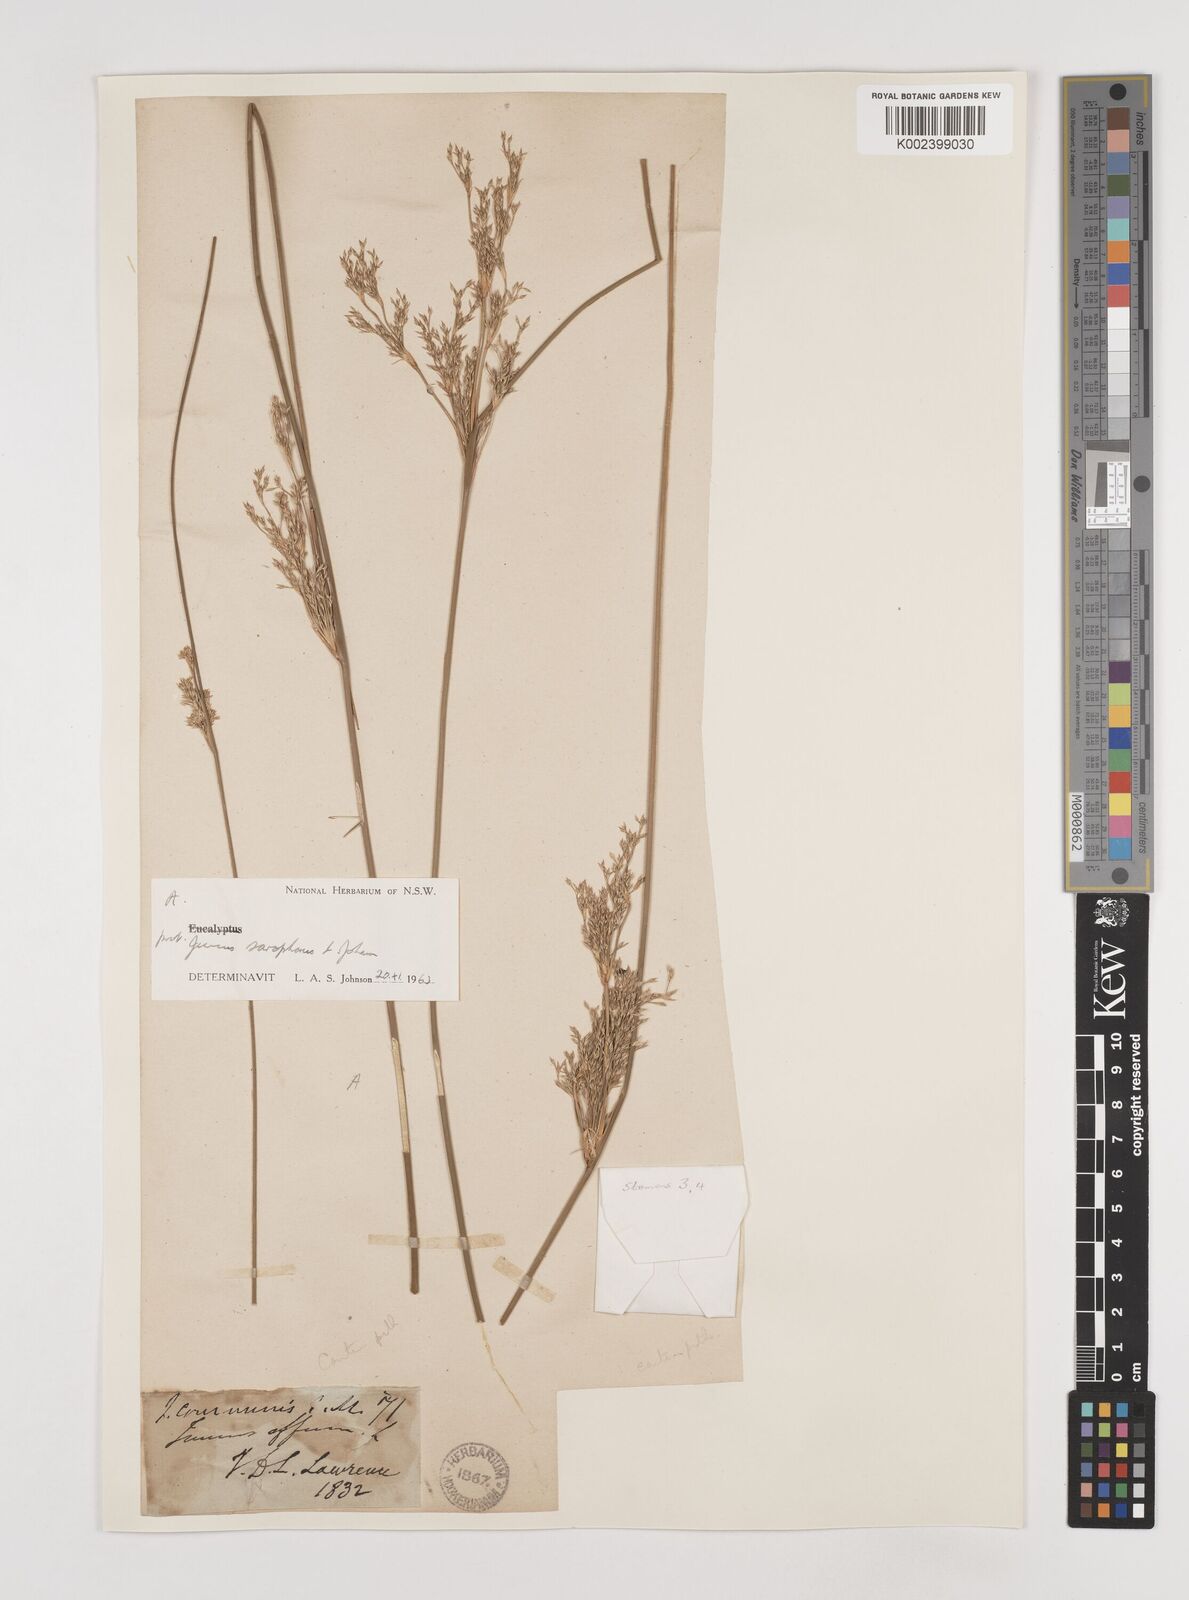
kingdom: Plantae
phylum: Tracheophyta
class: Liliopsida
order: Poales
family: Juncaceae
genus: Juncus
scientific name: Juncus sarophorus
